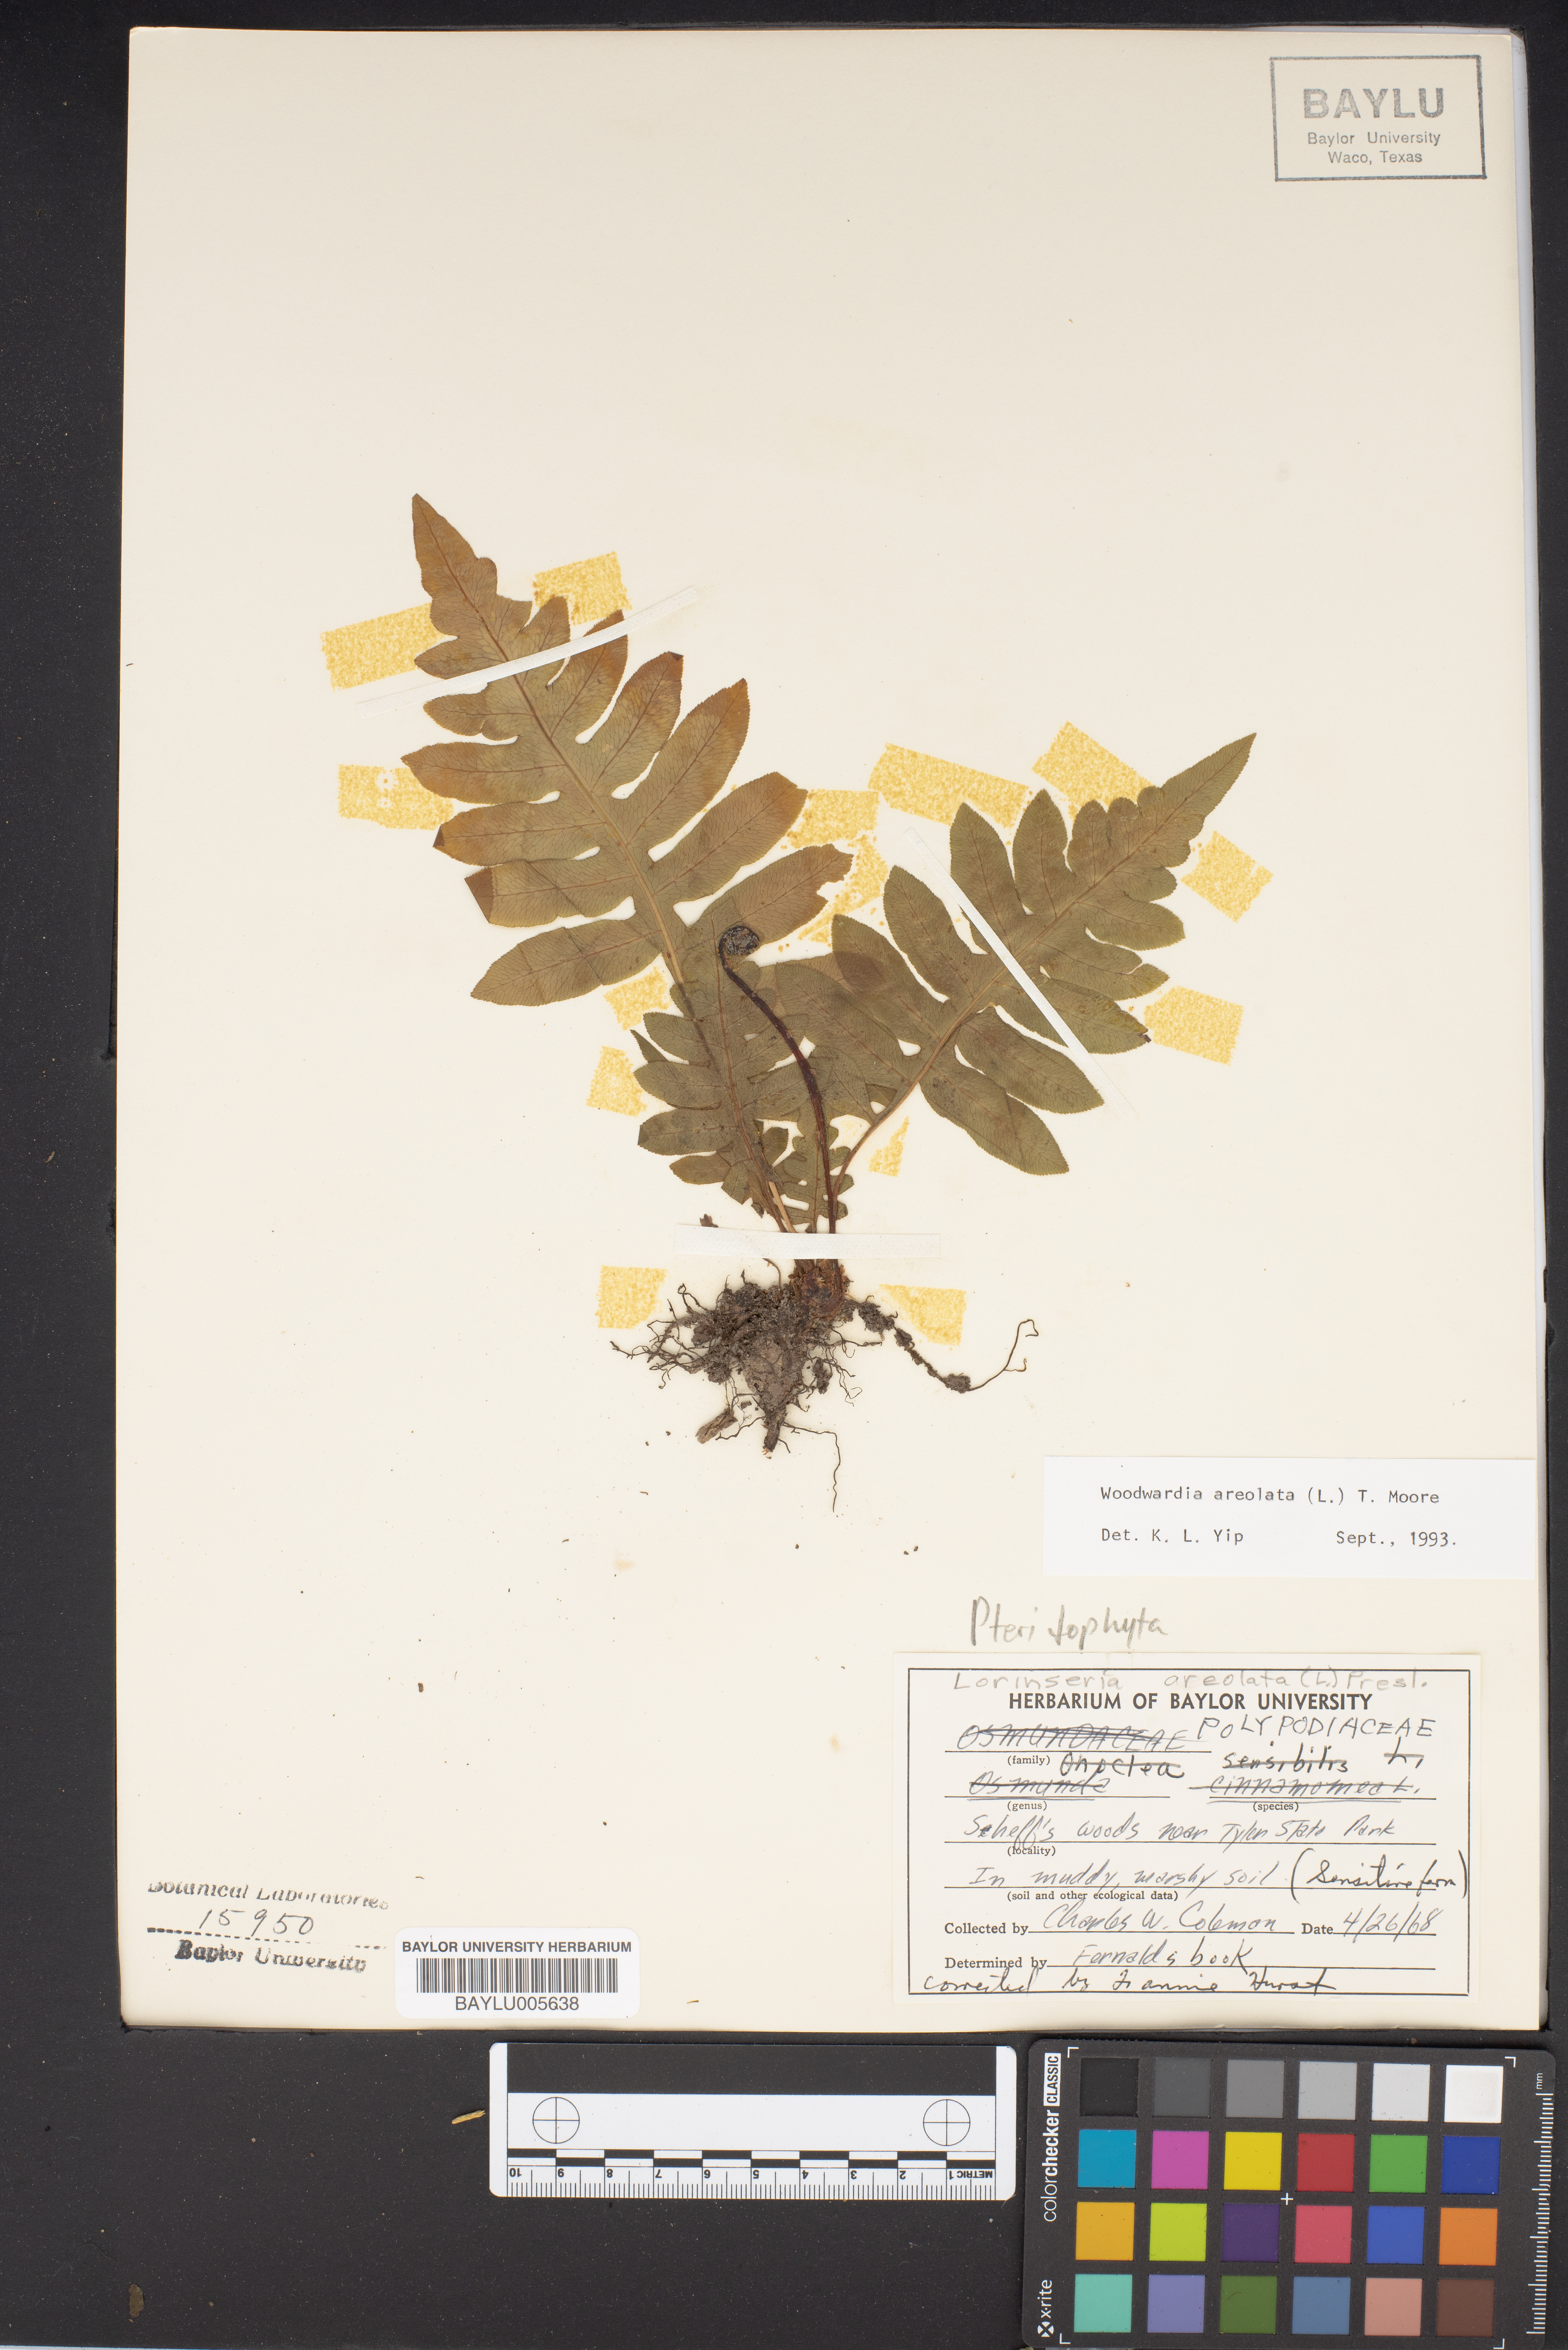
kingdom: Plantae
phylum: Tracheophyta
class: Polypodiopsida
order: Polypodiales
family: Blechnaceae
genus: Lorinseria
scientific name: Lorinseria areolata
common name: Dwarf chain fern
